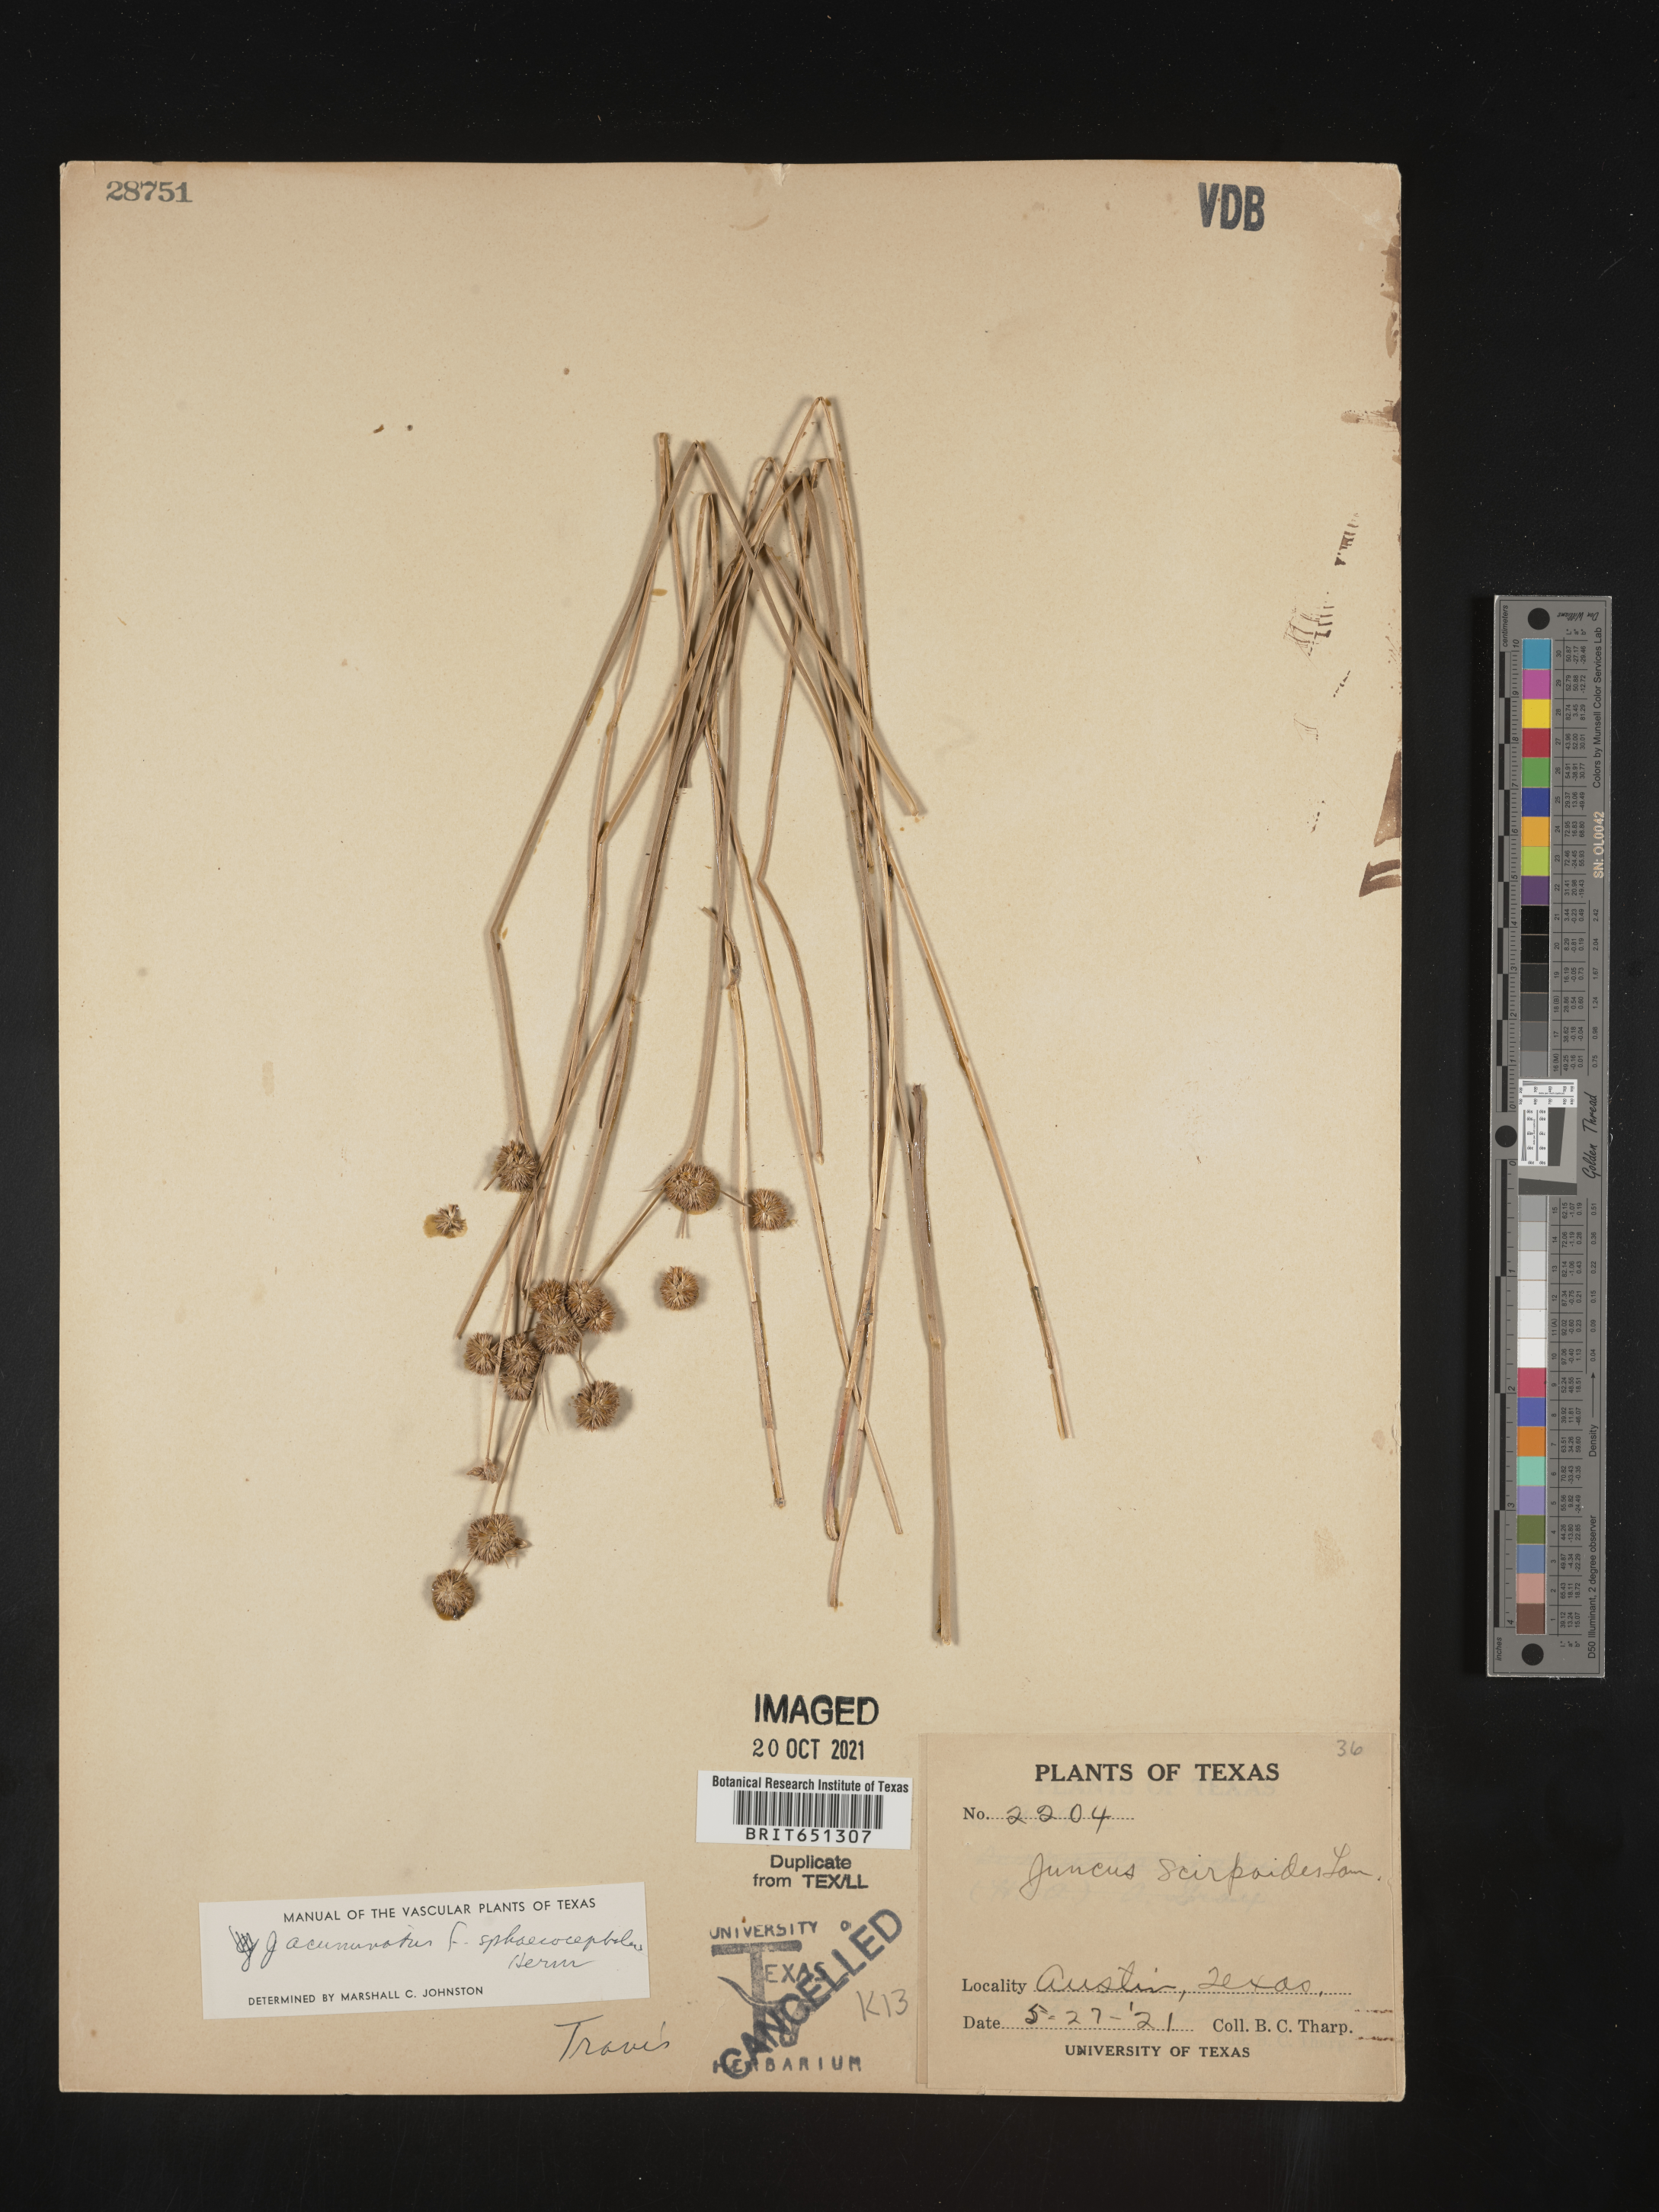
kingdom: Plantae
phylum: Tracheophyta
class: Liliopsida
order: Poales
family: Juncaceae
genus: Juncus
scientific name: Juncus acuminatus
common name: Knotty-leaved rush
